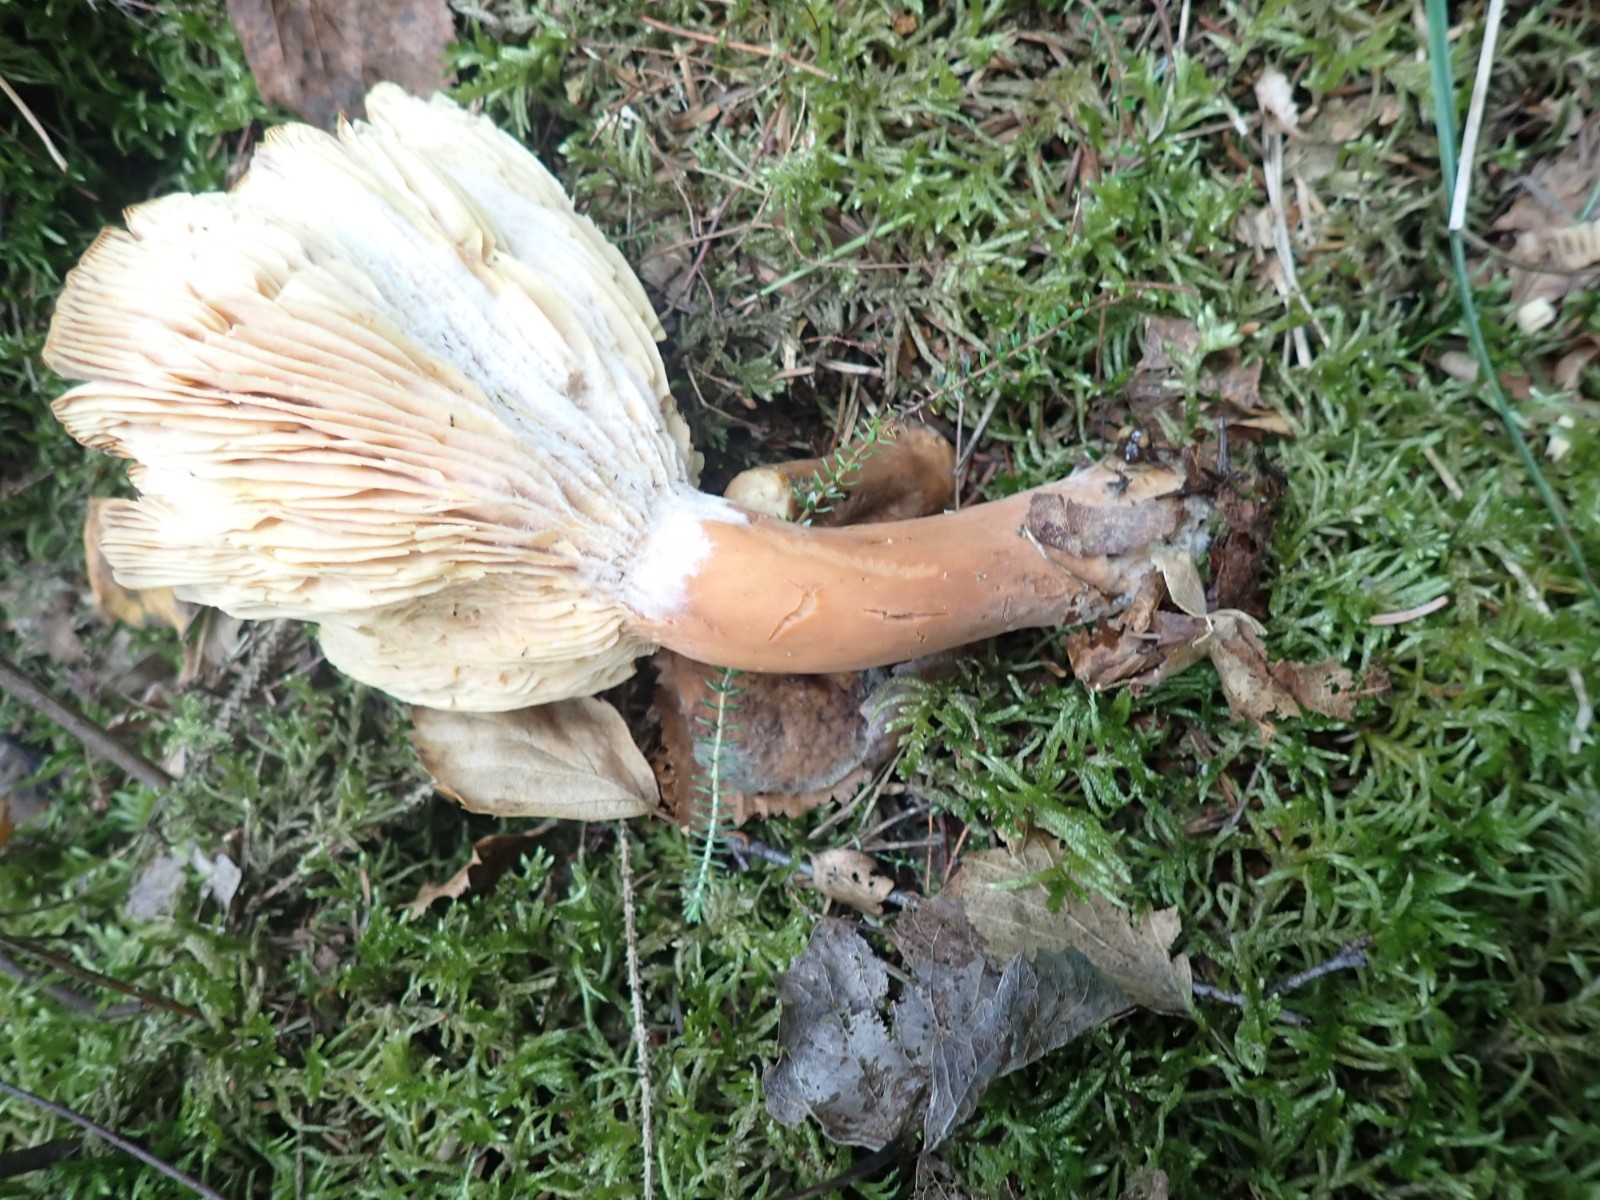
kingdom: Fungi
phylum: Basidiomycota
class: Agaricomycetes
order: Russulales
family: Russulaceae
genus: Lactarius
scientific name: Lactarius helvus
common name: mose-mælkehat
